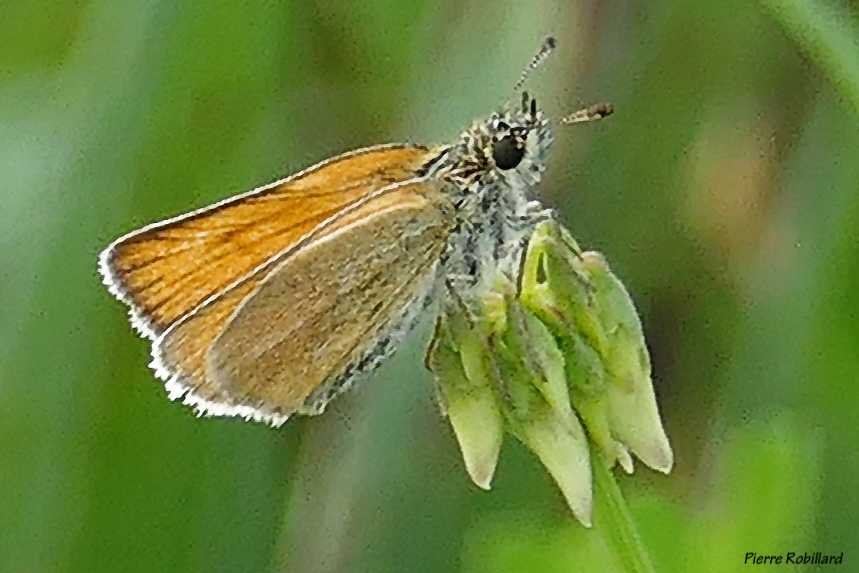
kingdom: Animalia
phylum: Arthropoda
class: Insecta
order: Lepidoptera
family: Hesperiidae
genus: Thymelicus
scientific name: Thymelicus lineola
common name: European Skipper
